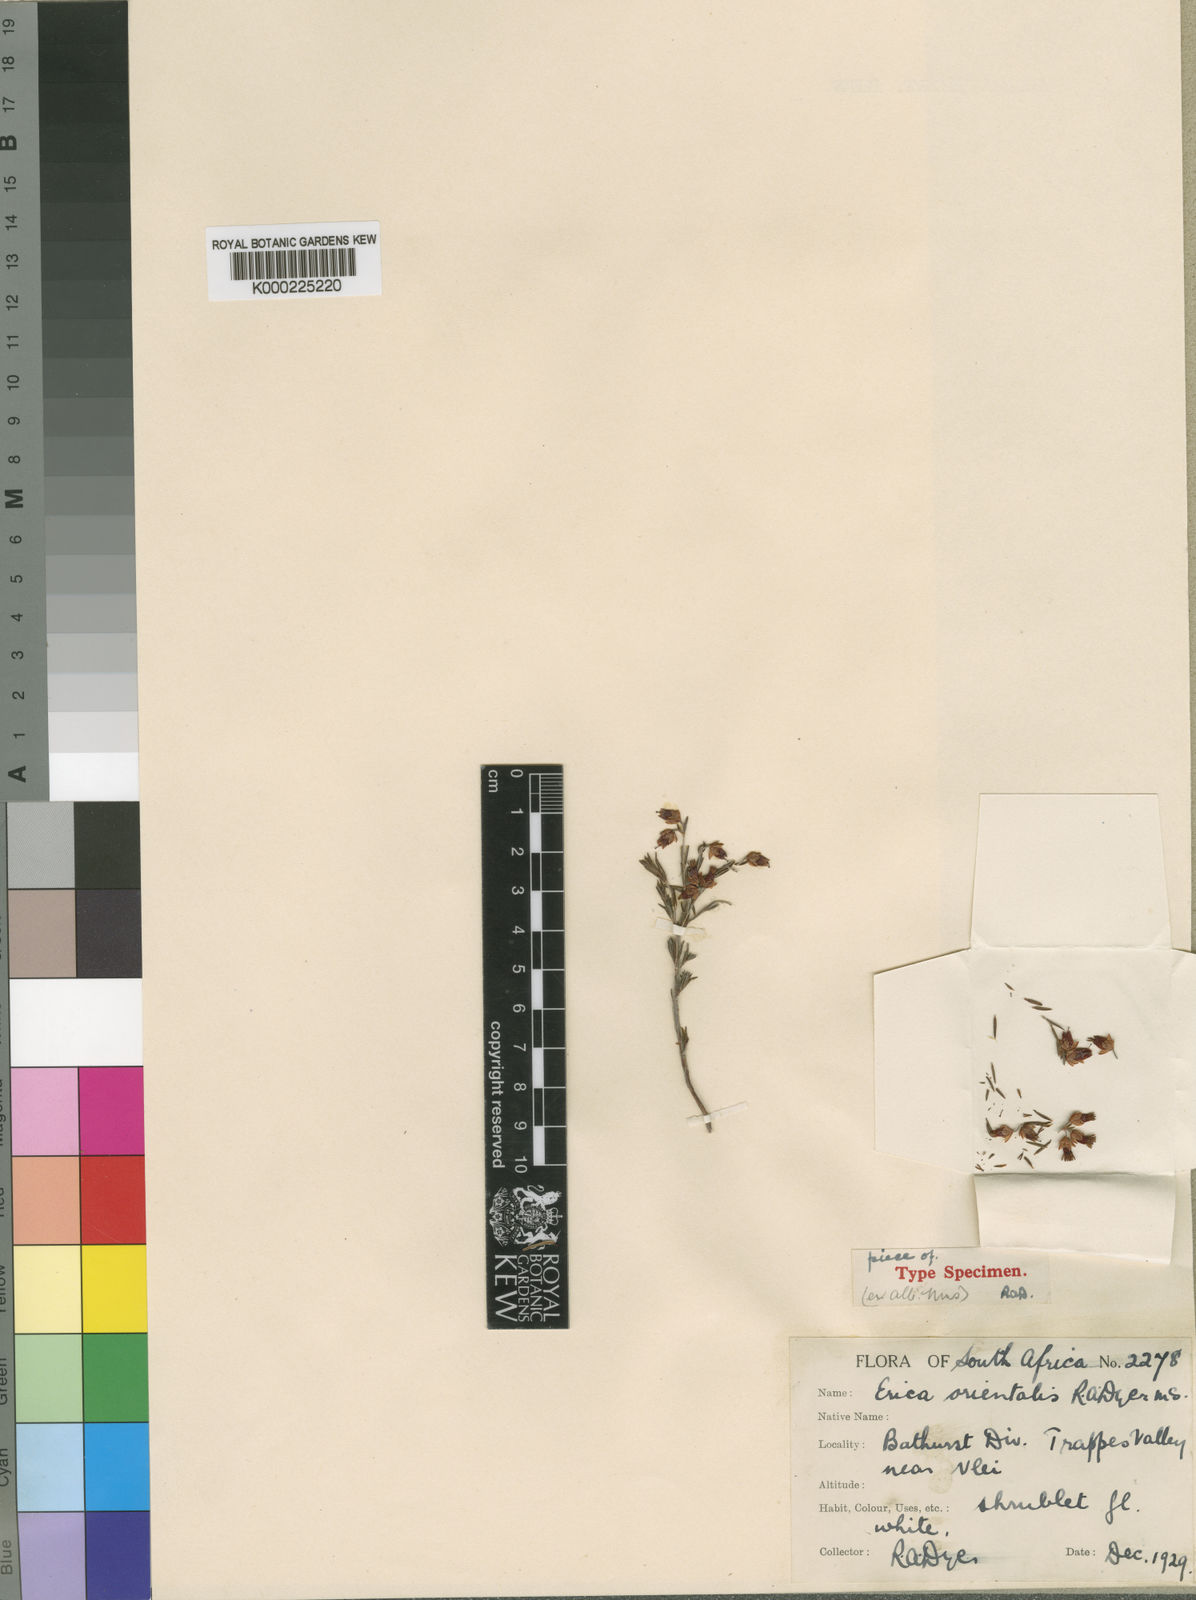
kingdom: Plantae
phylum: Tracheophyta
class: Magnoliopsida
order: Ericales
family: Ericaceae
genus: Erica
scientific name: Erica orientalis
